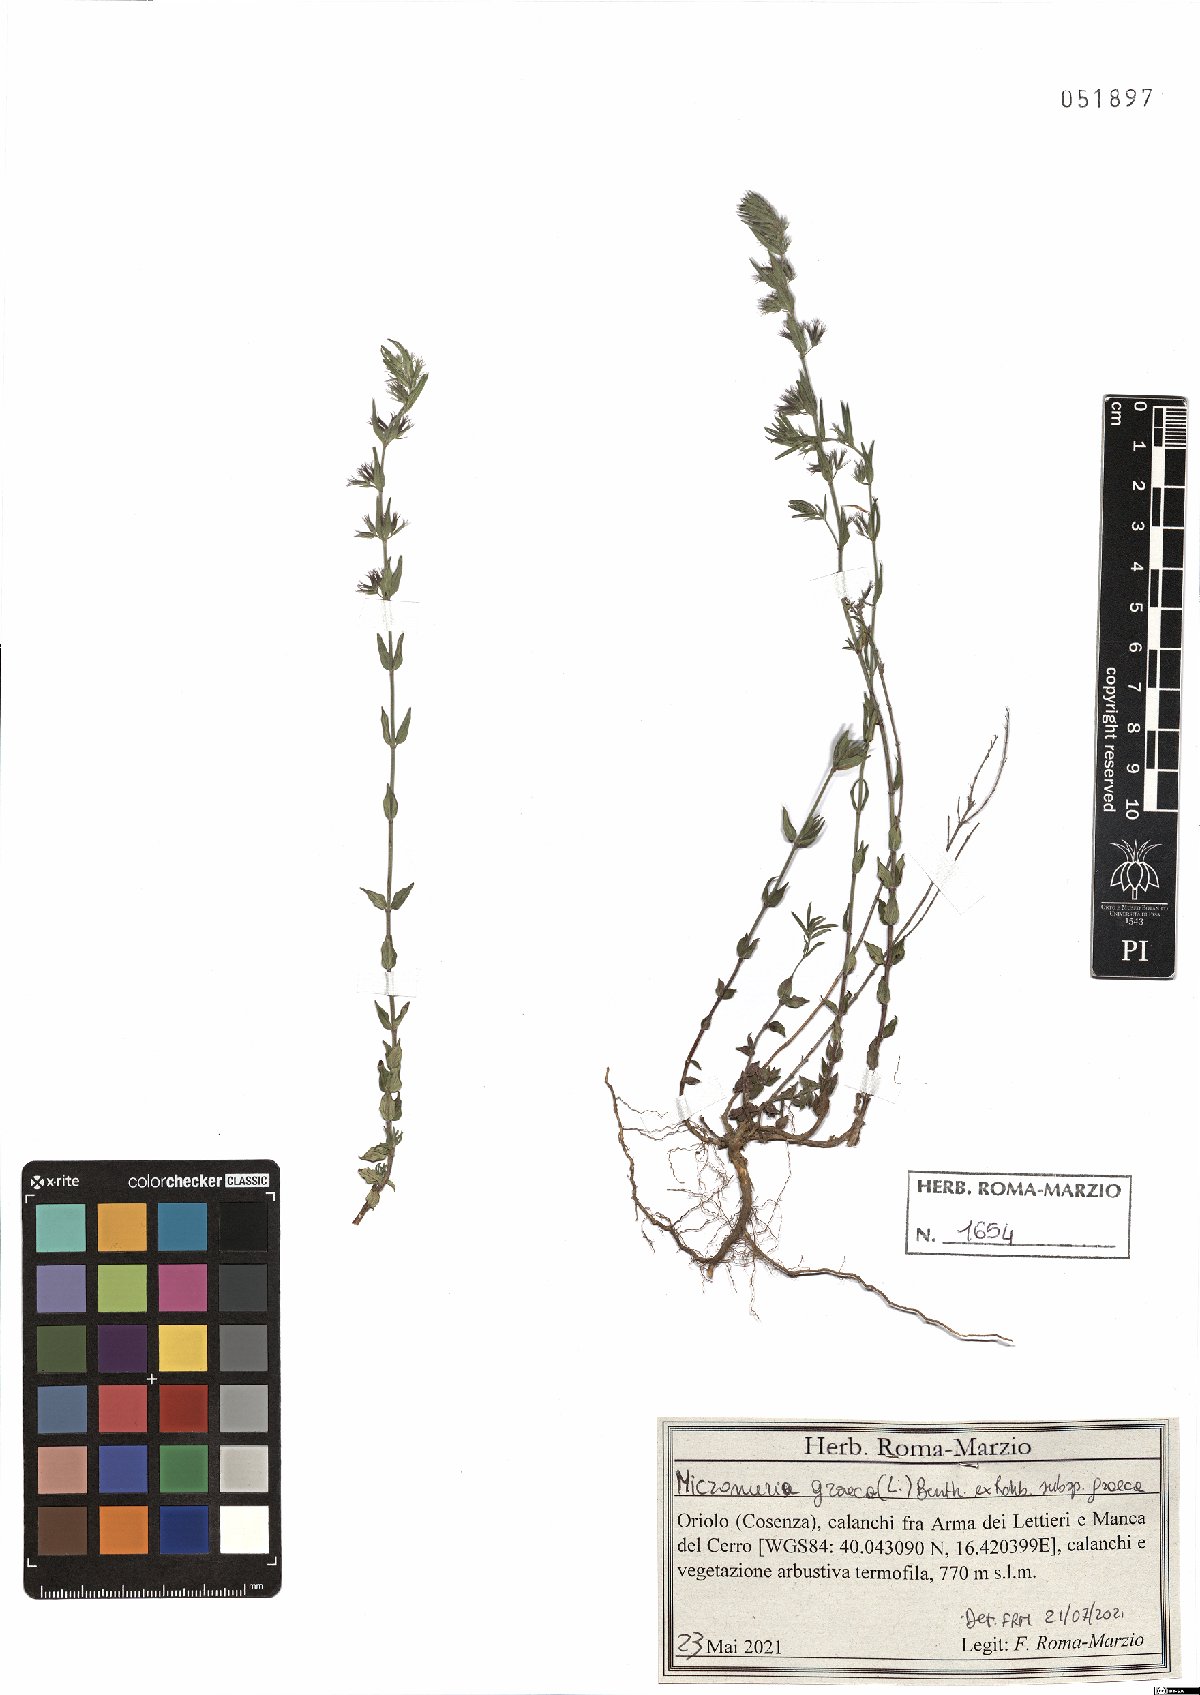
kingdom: Plantae
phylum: Tracheophyta
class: Magnoliopsida
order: Lamiales
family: Lamiaceae
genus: Micromeria
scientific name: Micromeria graeca
